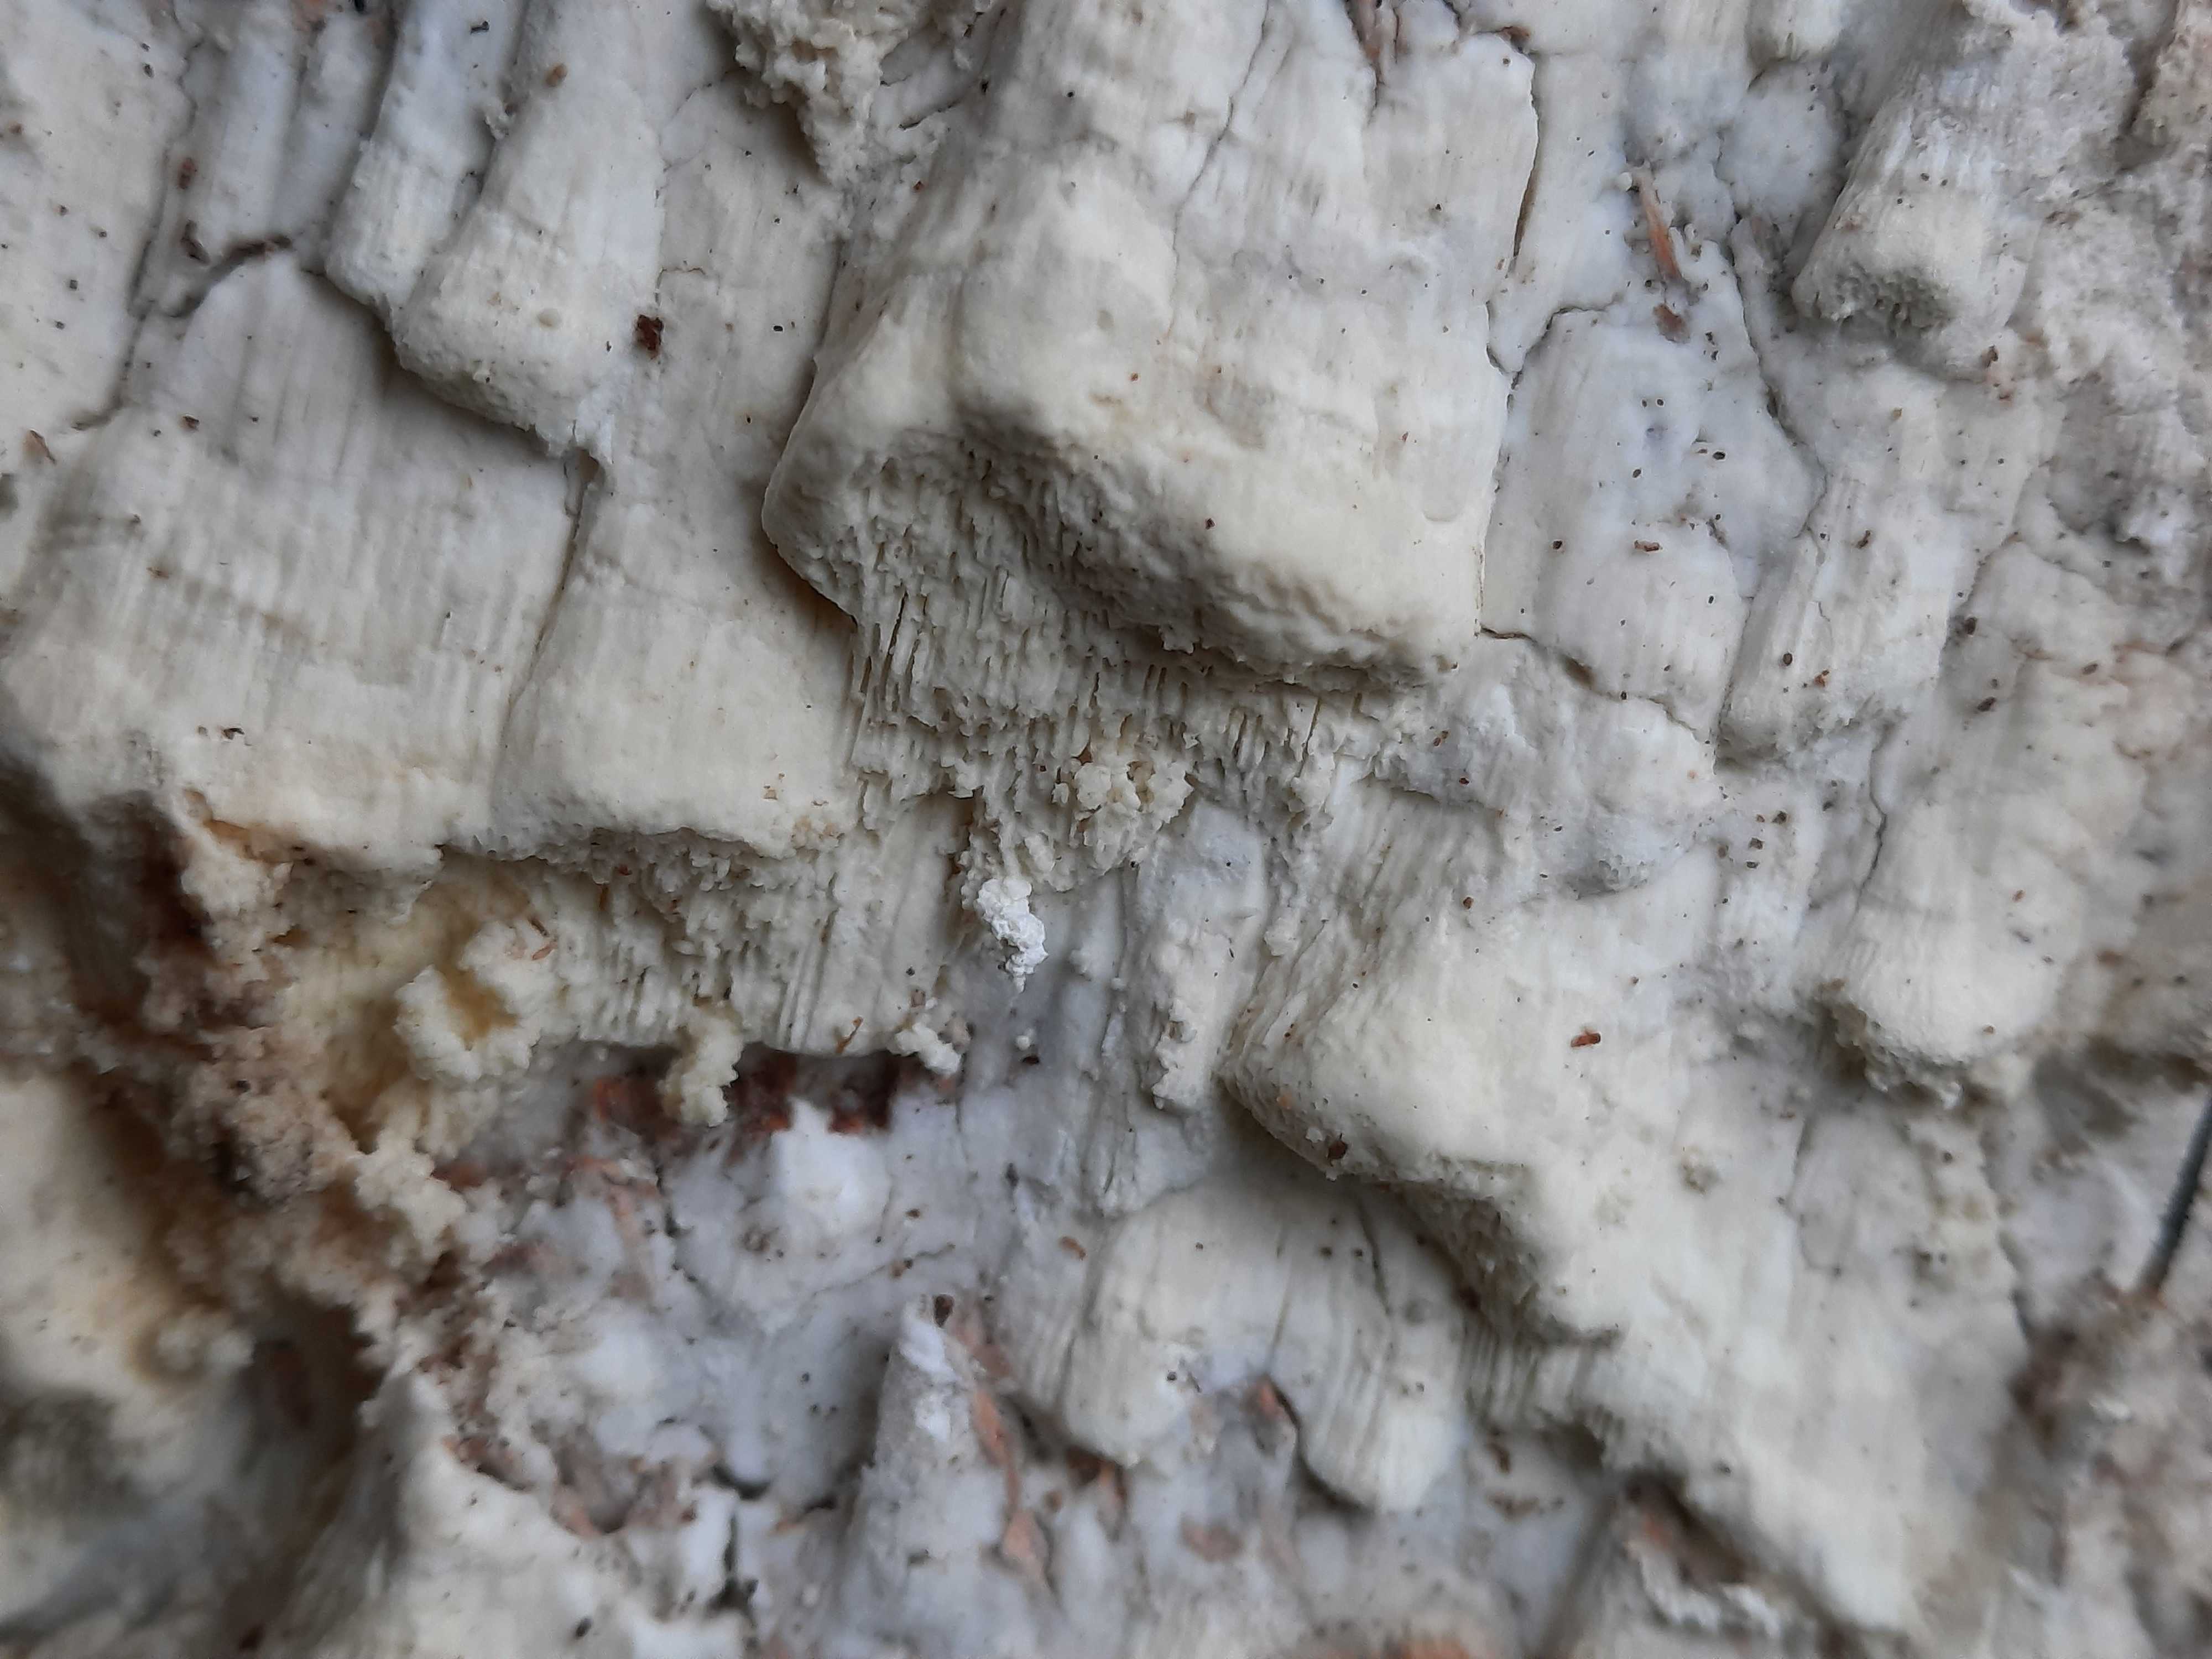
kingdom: Fungi
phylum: Basidiomycota
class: Agaricomycetes
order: Polyporales
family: Fomitopsidaceae
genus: Daedalea
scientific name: Daedalea xantha
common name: gul sejporesvamp
